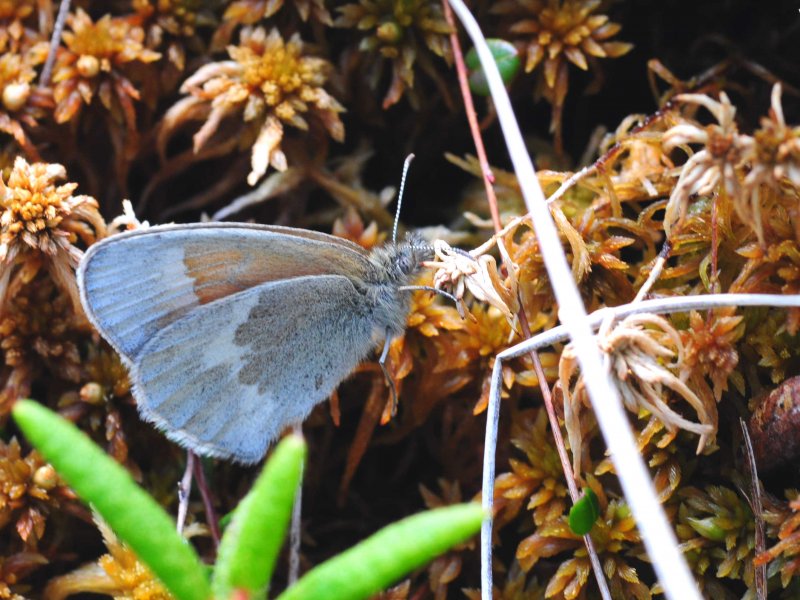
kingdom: Animalia
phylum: Arthropoda
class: Insecta
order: Lepidoptera
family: Nymphalidae
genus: Coenonympha
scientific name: Coenonympha tullia
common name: Large Heath
